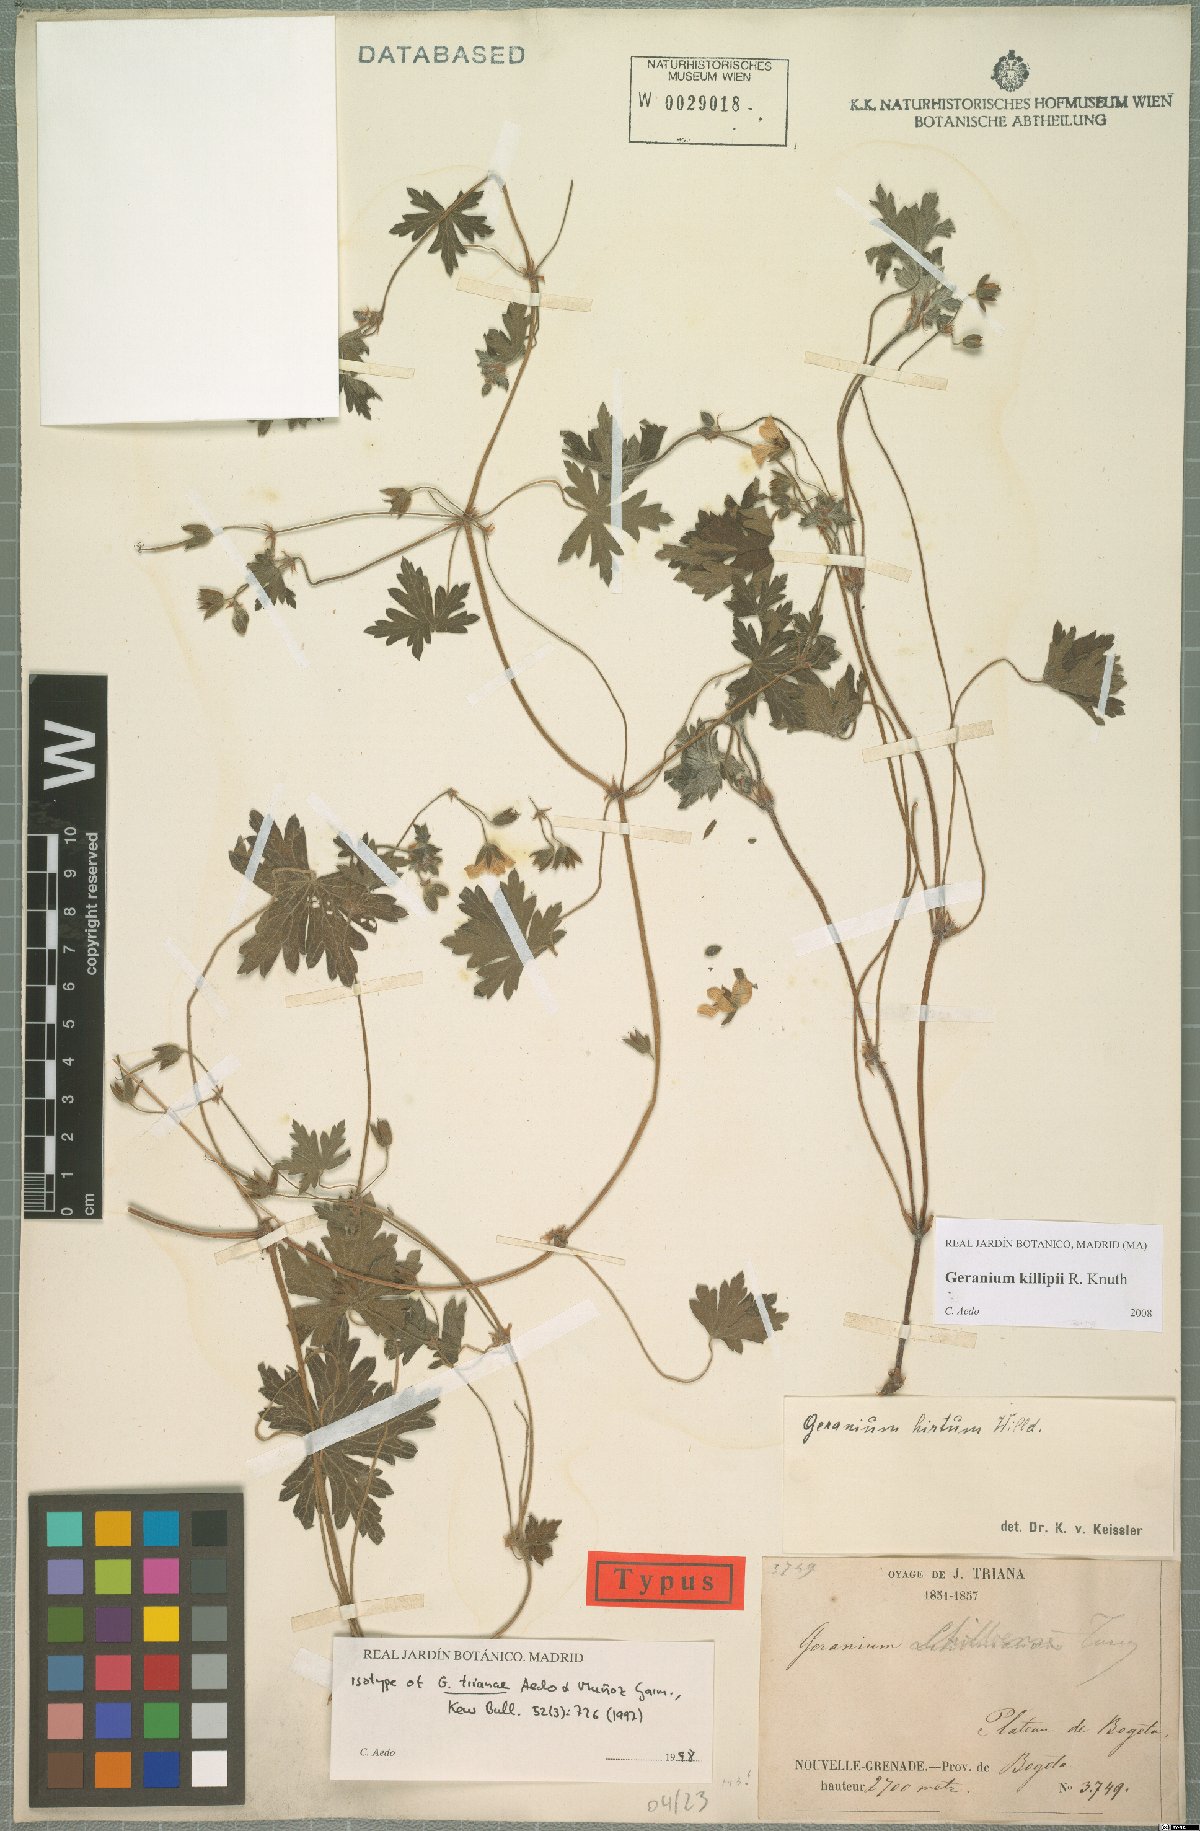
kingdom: Plantae
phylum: Tracheophyta
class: Magnoliopsida
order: Geraniales
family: Geraniaceae
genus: Geranium
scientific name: Geranium killipii
